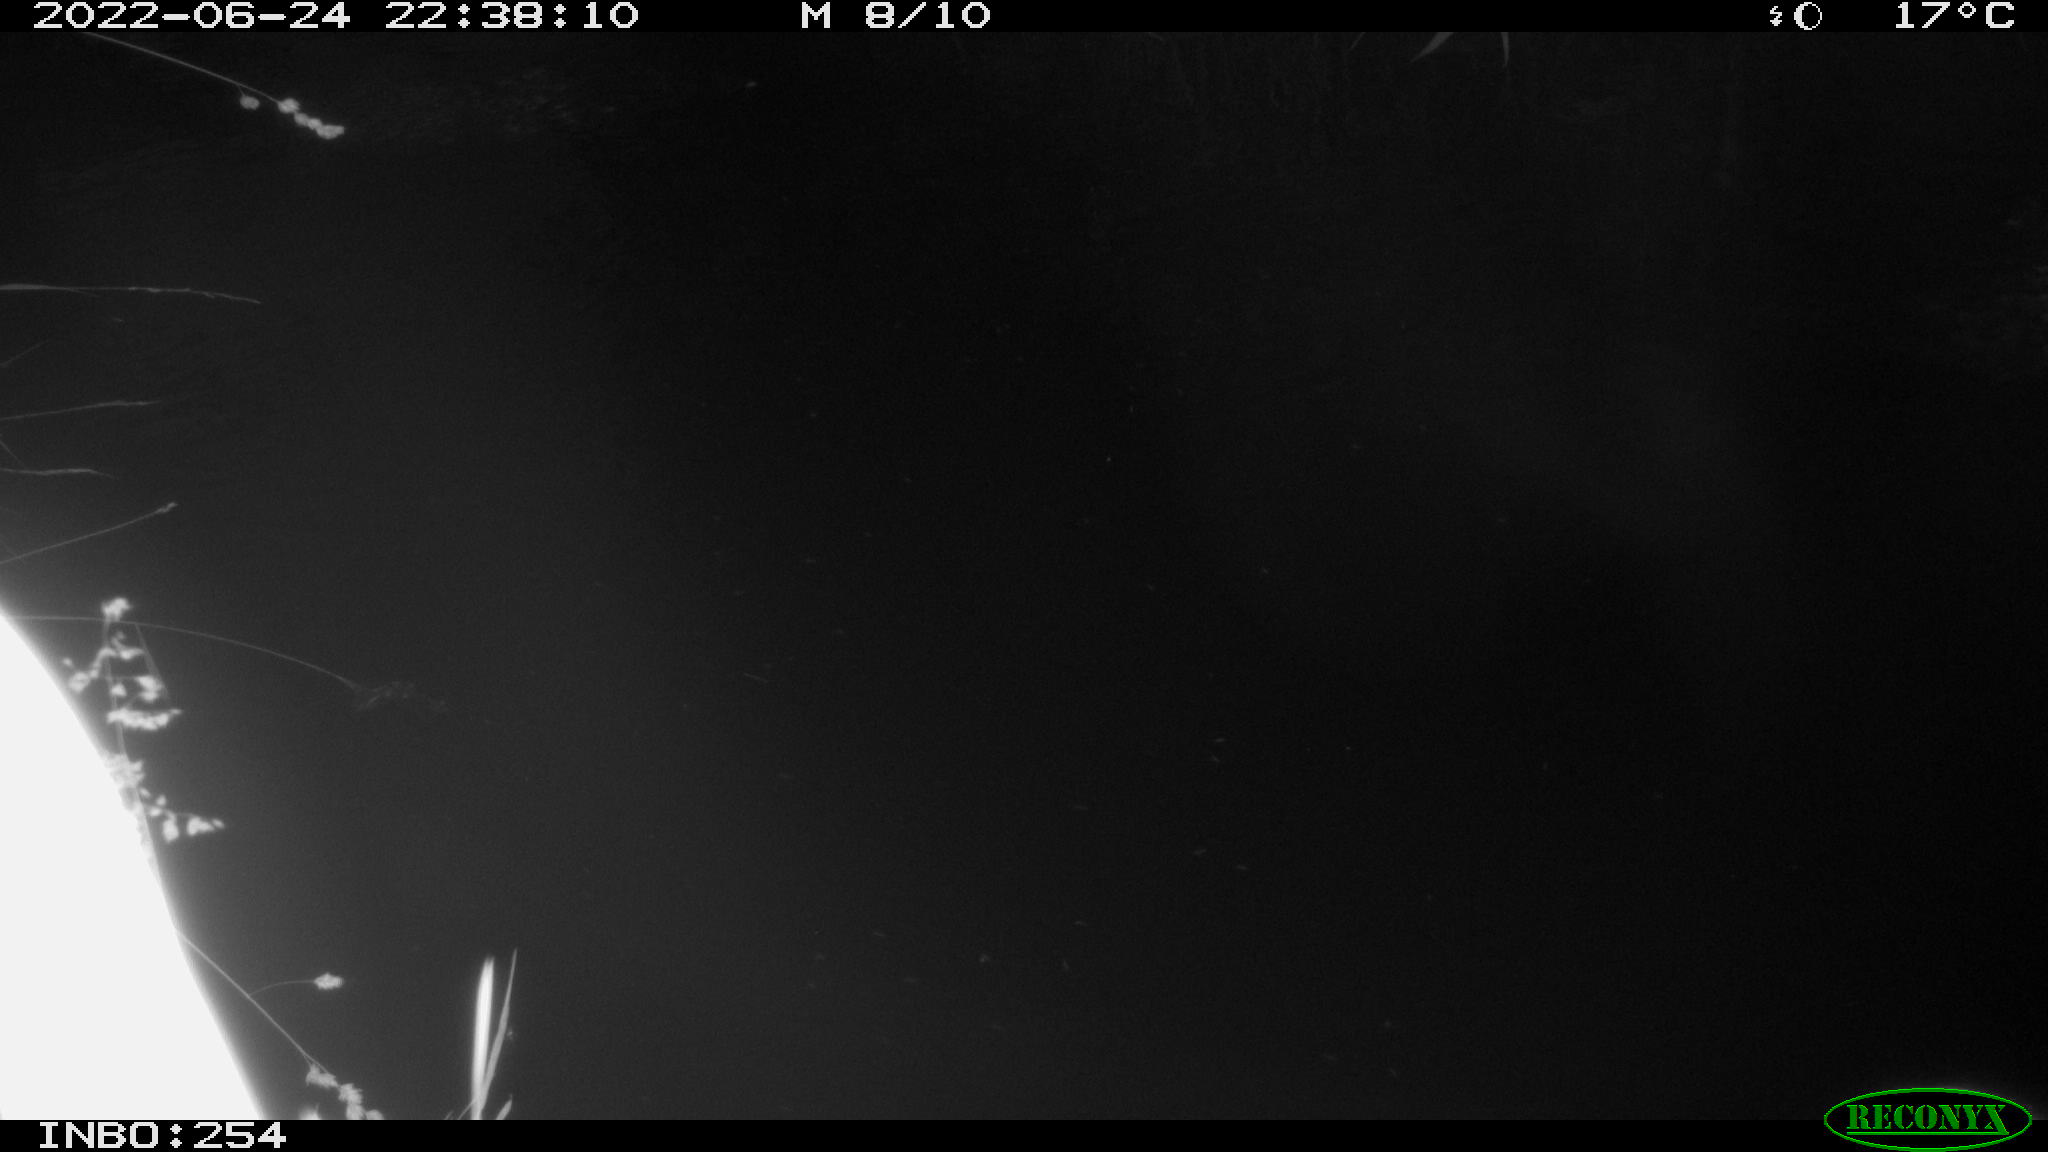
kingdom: Animalia
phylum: Chordata
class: Aves
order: Anseriformes
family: Anatidae
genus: Anas
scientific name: Anas platyrhynchos
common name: Mallard
